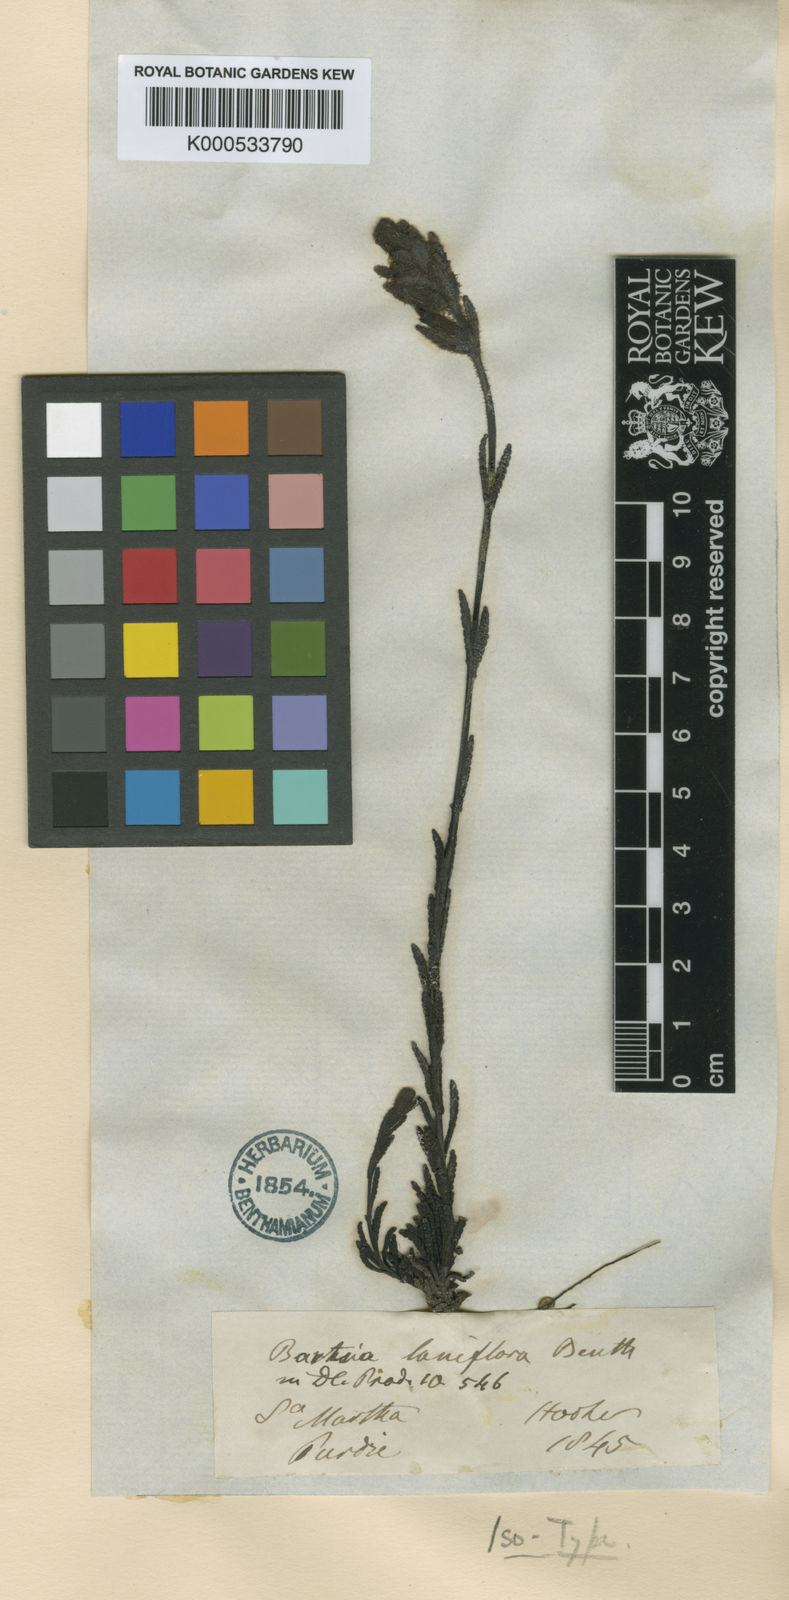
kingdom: Plantae
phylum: Tracheophyta
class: Magnoliopsida
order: Lamiales
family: Orobanchaceae
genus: Neobartsia
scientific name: Neobartsia laniflora
